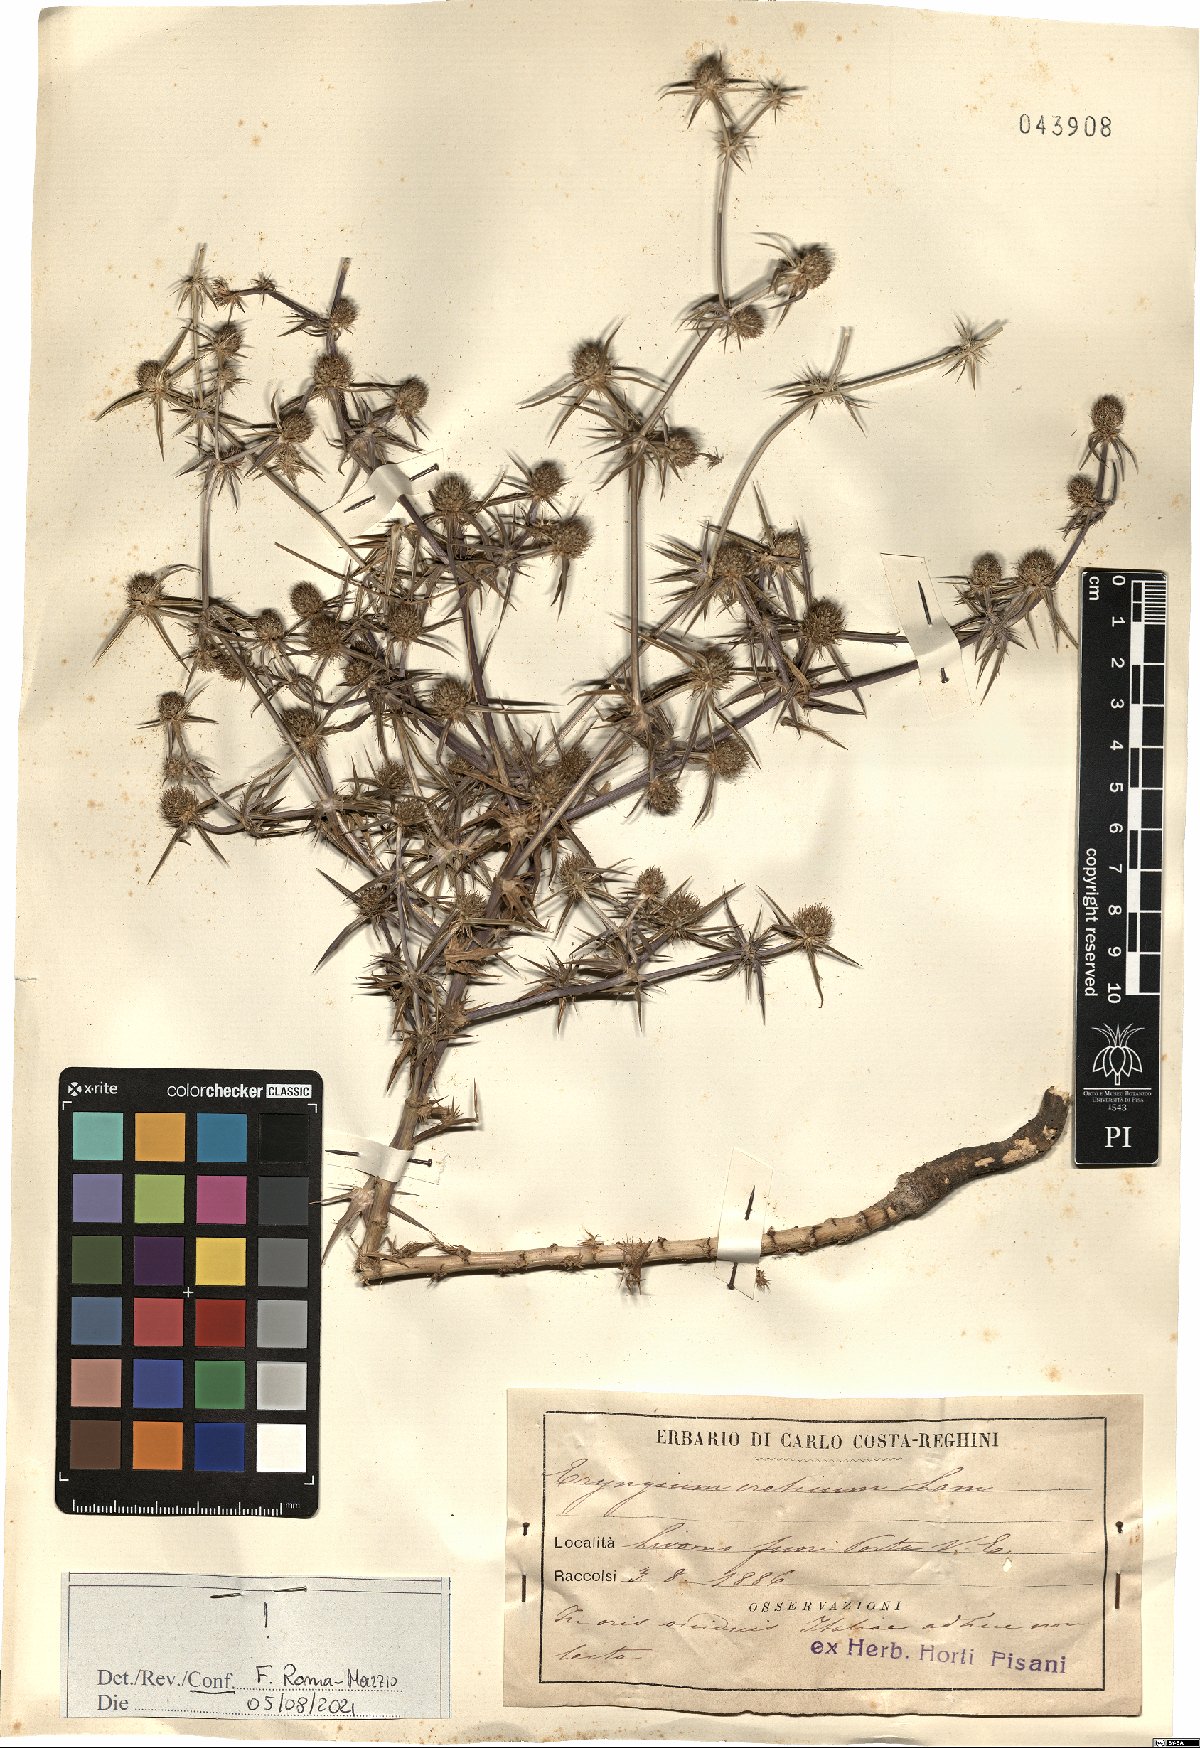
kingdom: Plantae
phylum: Tracheophyta
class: Magnoliopsida
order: Apiales
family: Apiaceae
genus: Eryngium
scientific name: Eryngium creticum
